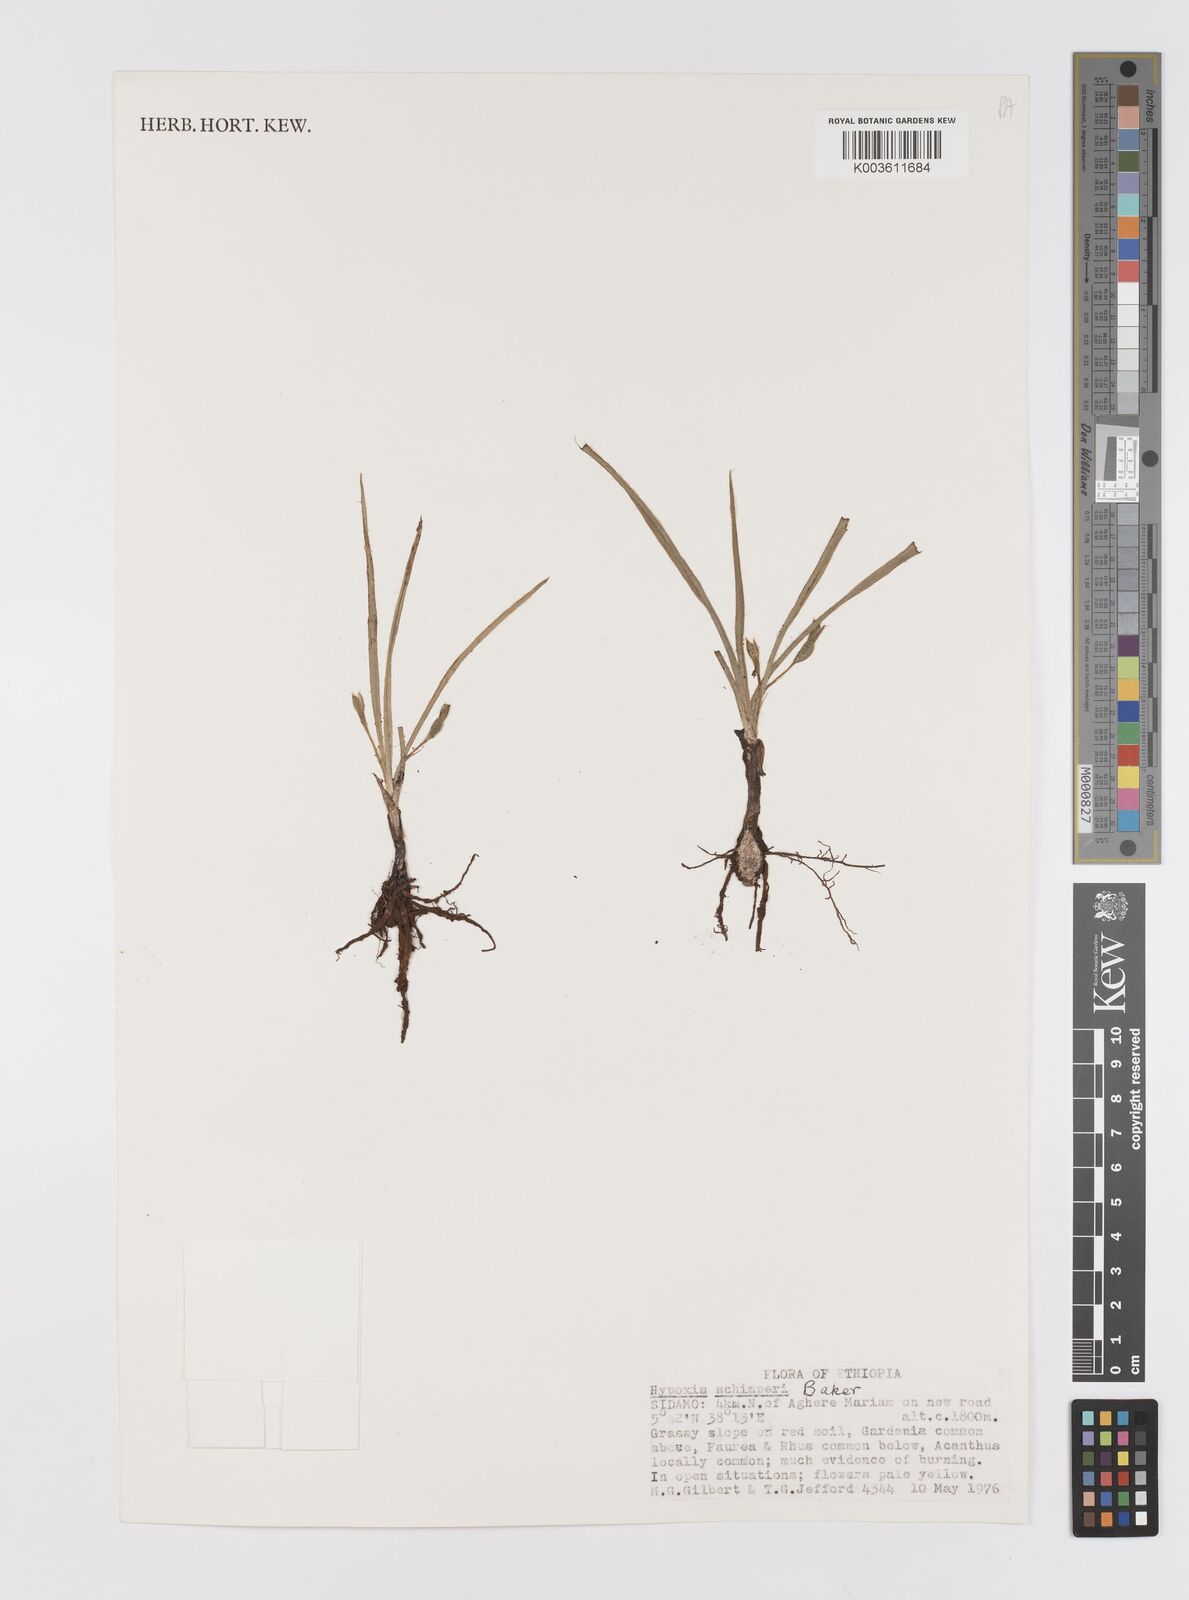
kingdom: Plantae
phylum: Tracheophyta
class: Liliopsida
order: Asparagales
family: Hypoxidaceae
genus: Hypoxis
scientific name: Hypoxis angustifolia
